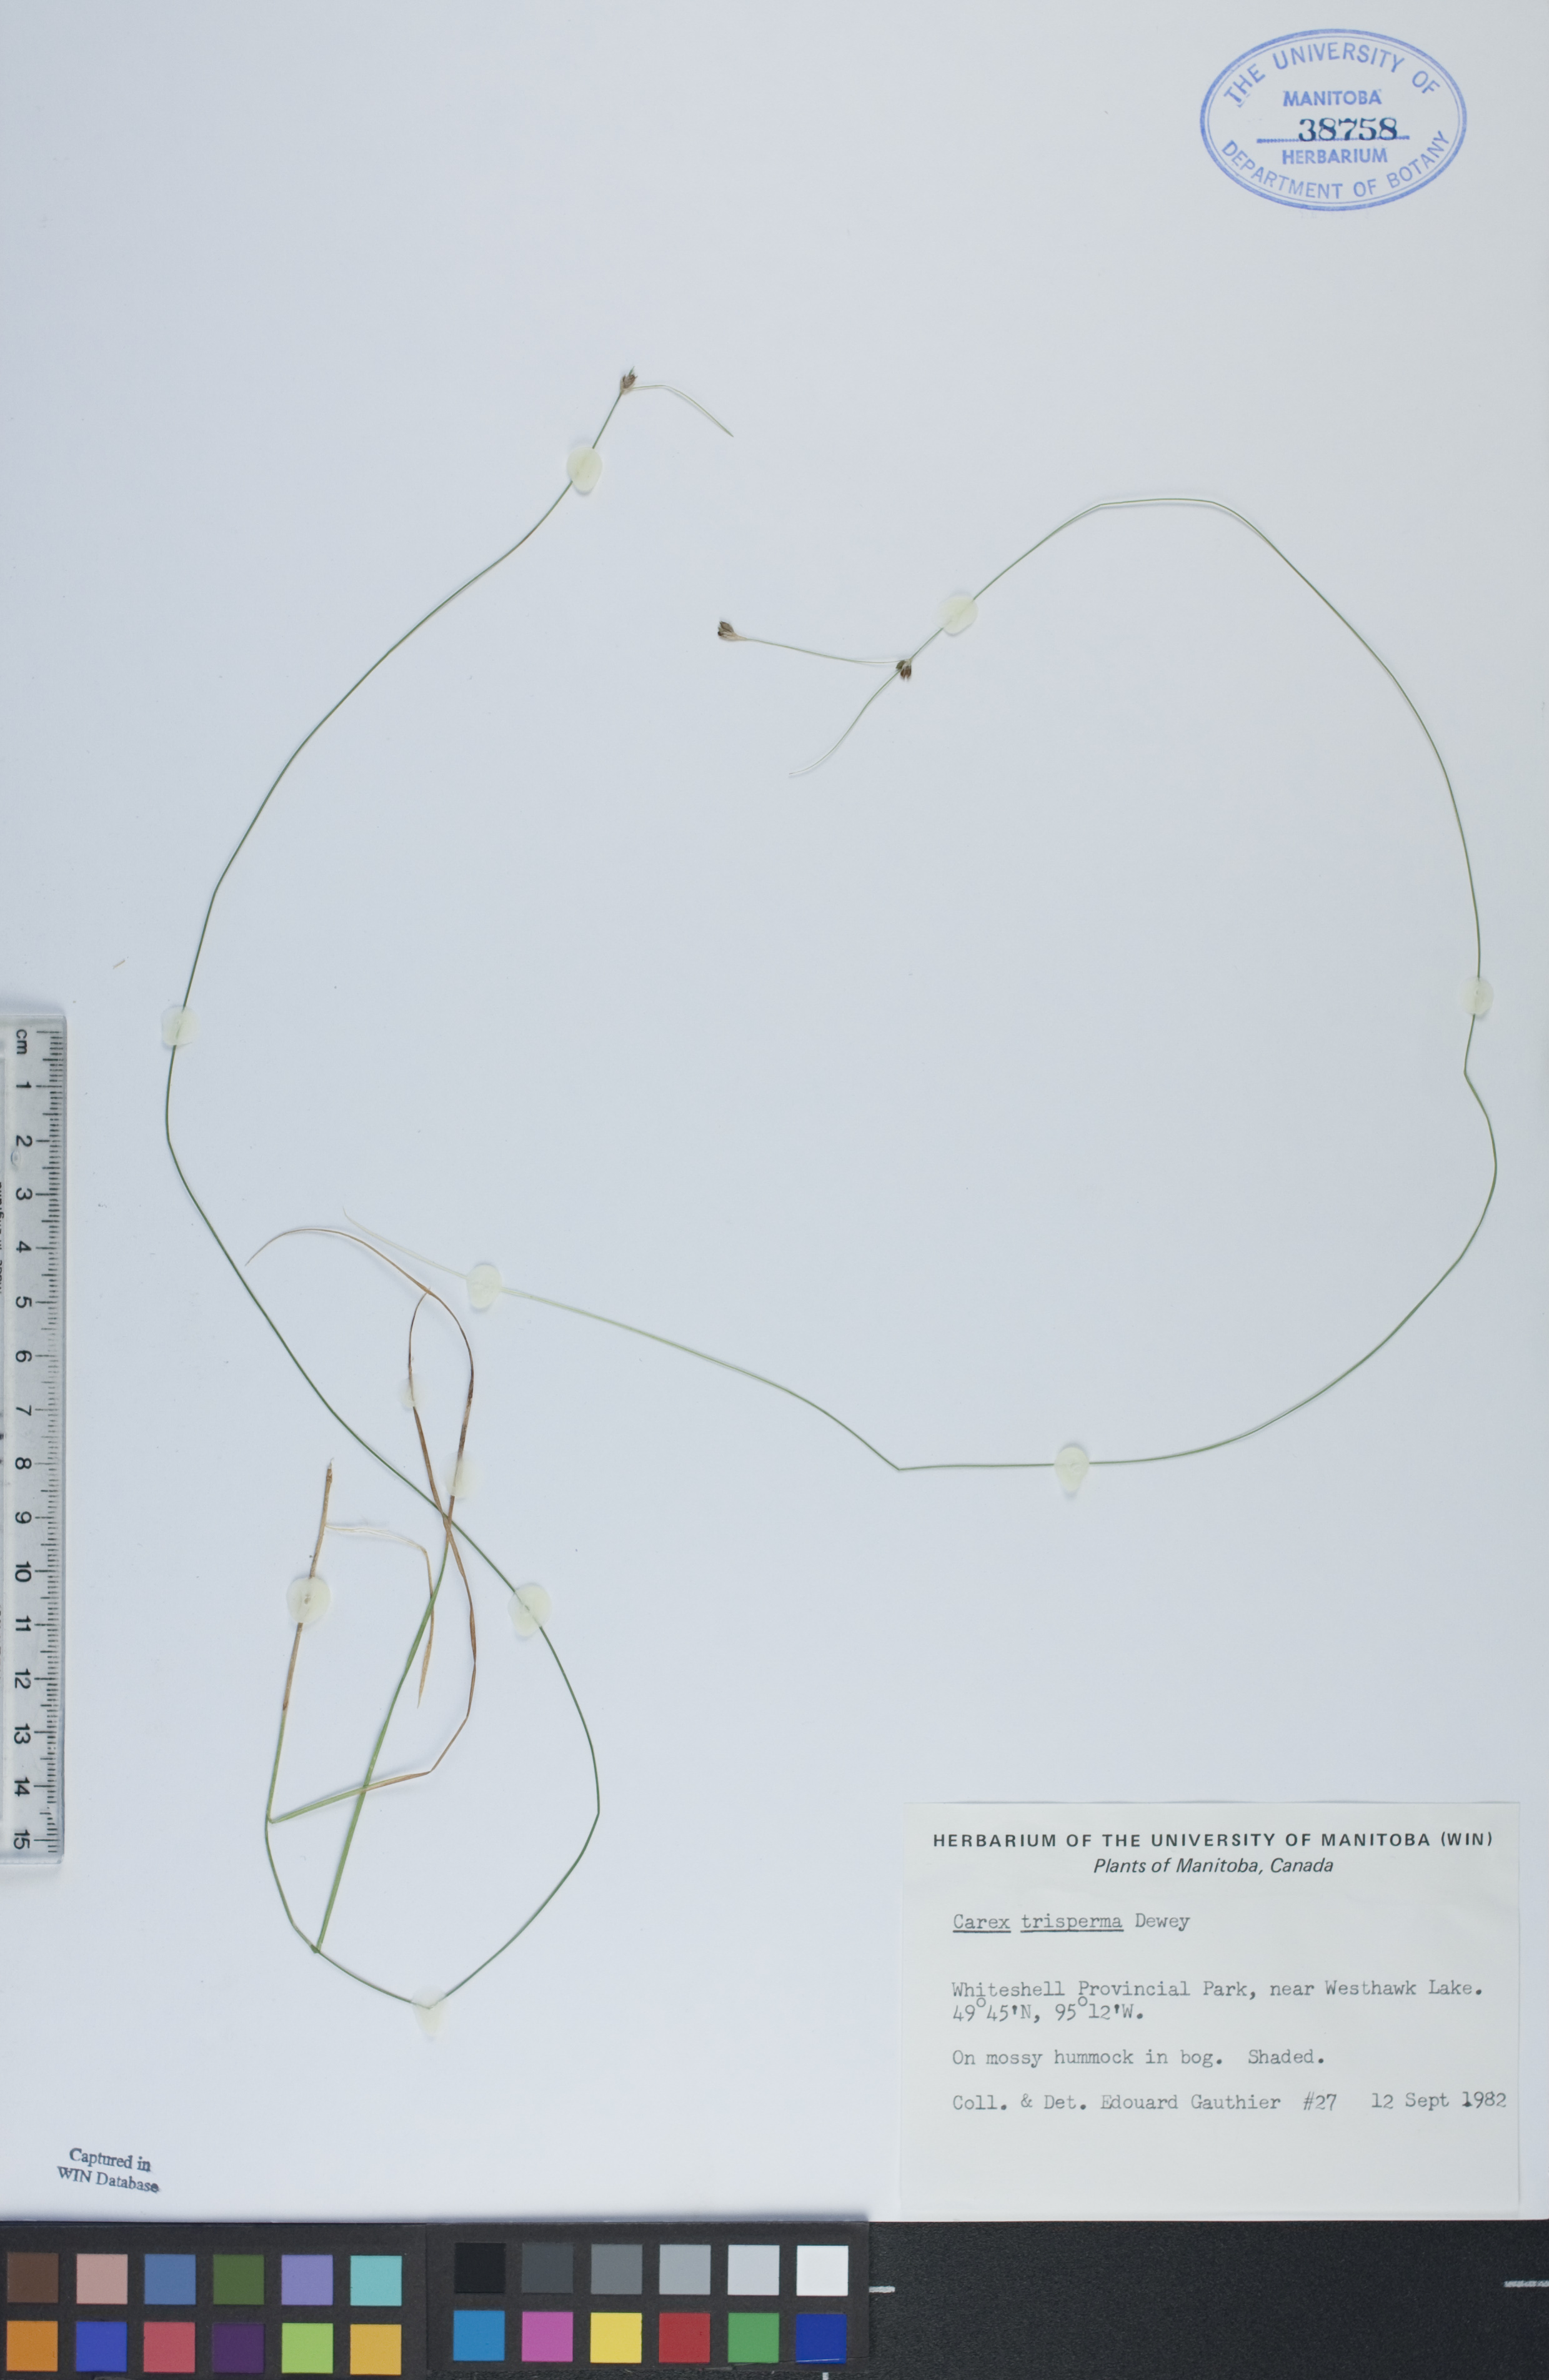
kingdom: Plantae
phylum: Tracheophyta
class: Liliopsida
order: Poales
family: Cyperaceae
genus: Carex
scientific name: Carex trisperma
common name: Three-seeded sedge
